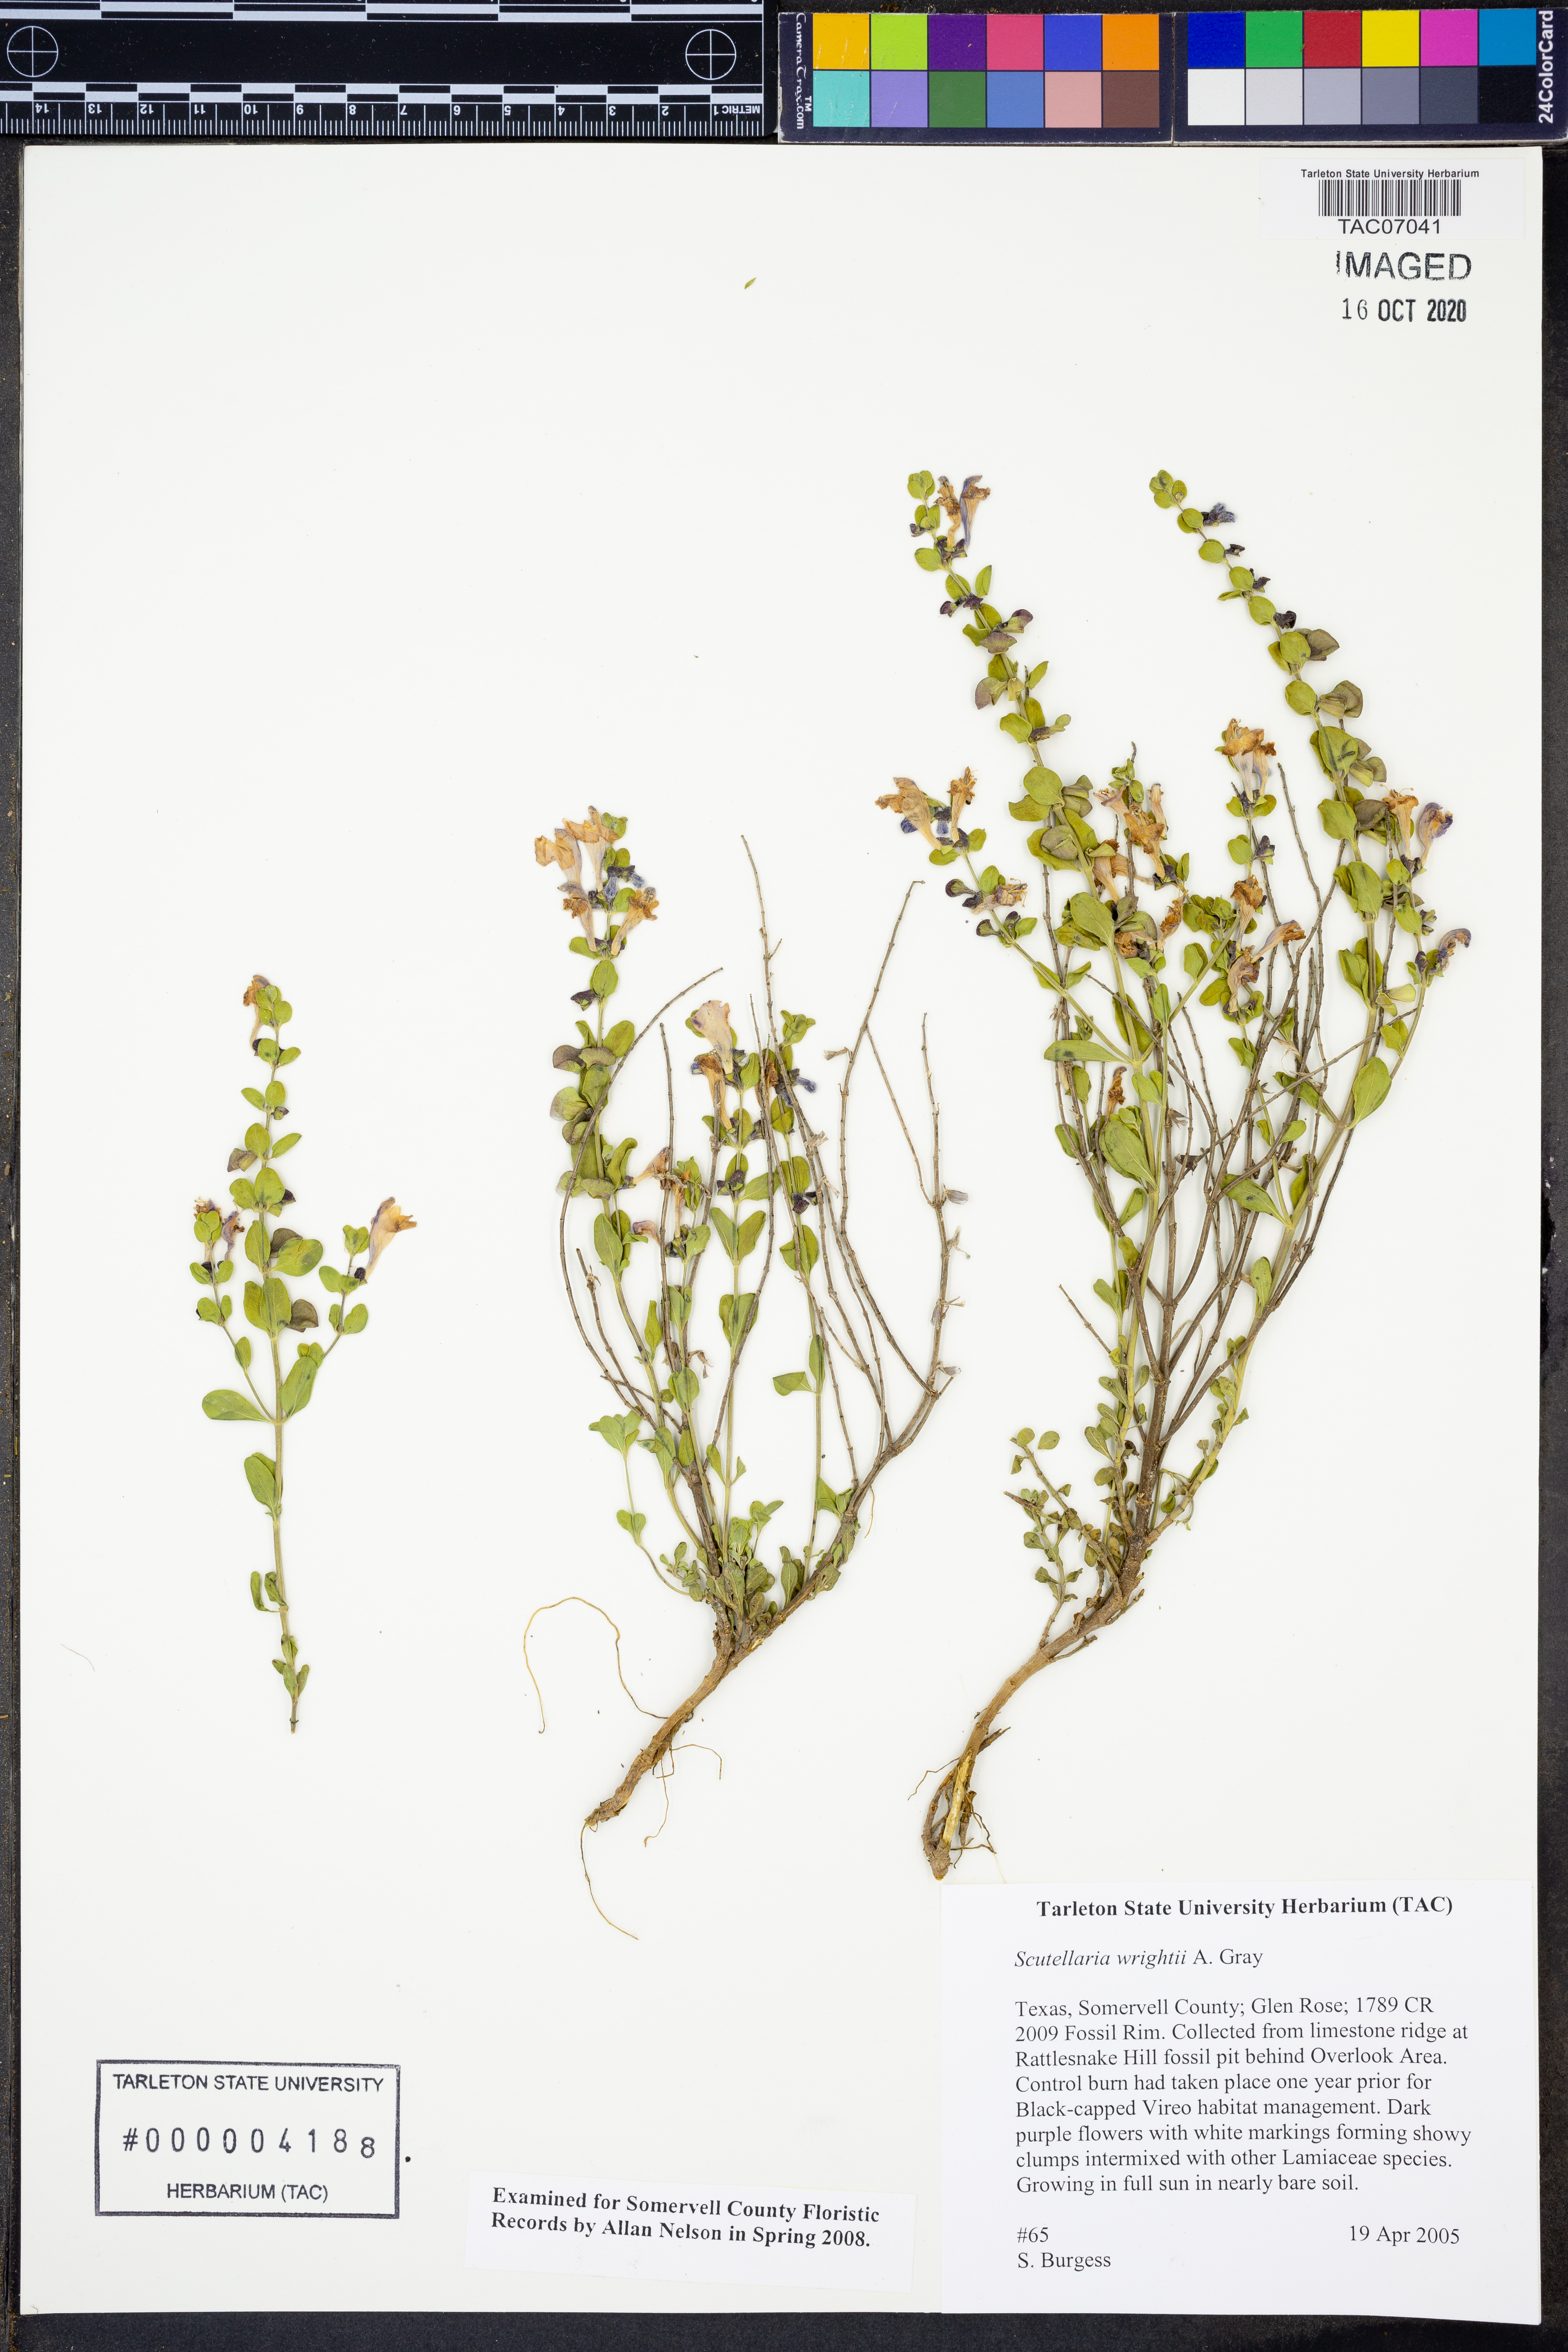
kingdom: Plantae
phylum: Tracheophyta
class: Magnoliopsida
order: Lamiales
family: Lamiaceae
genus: Scutellaria
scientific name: Scutellaria wrightii
